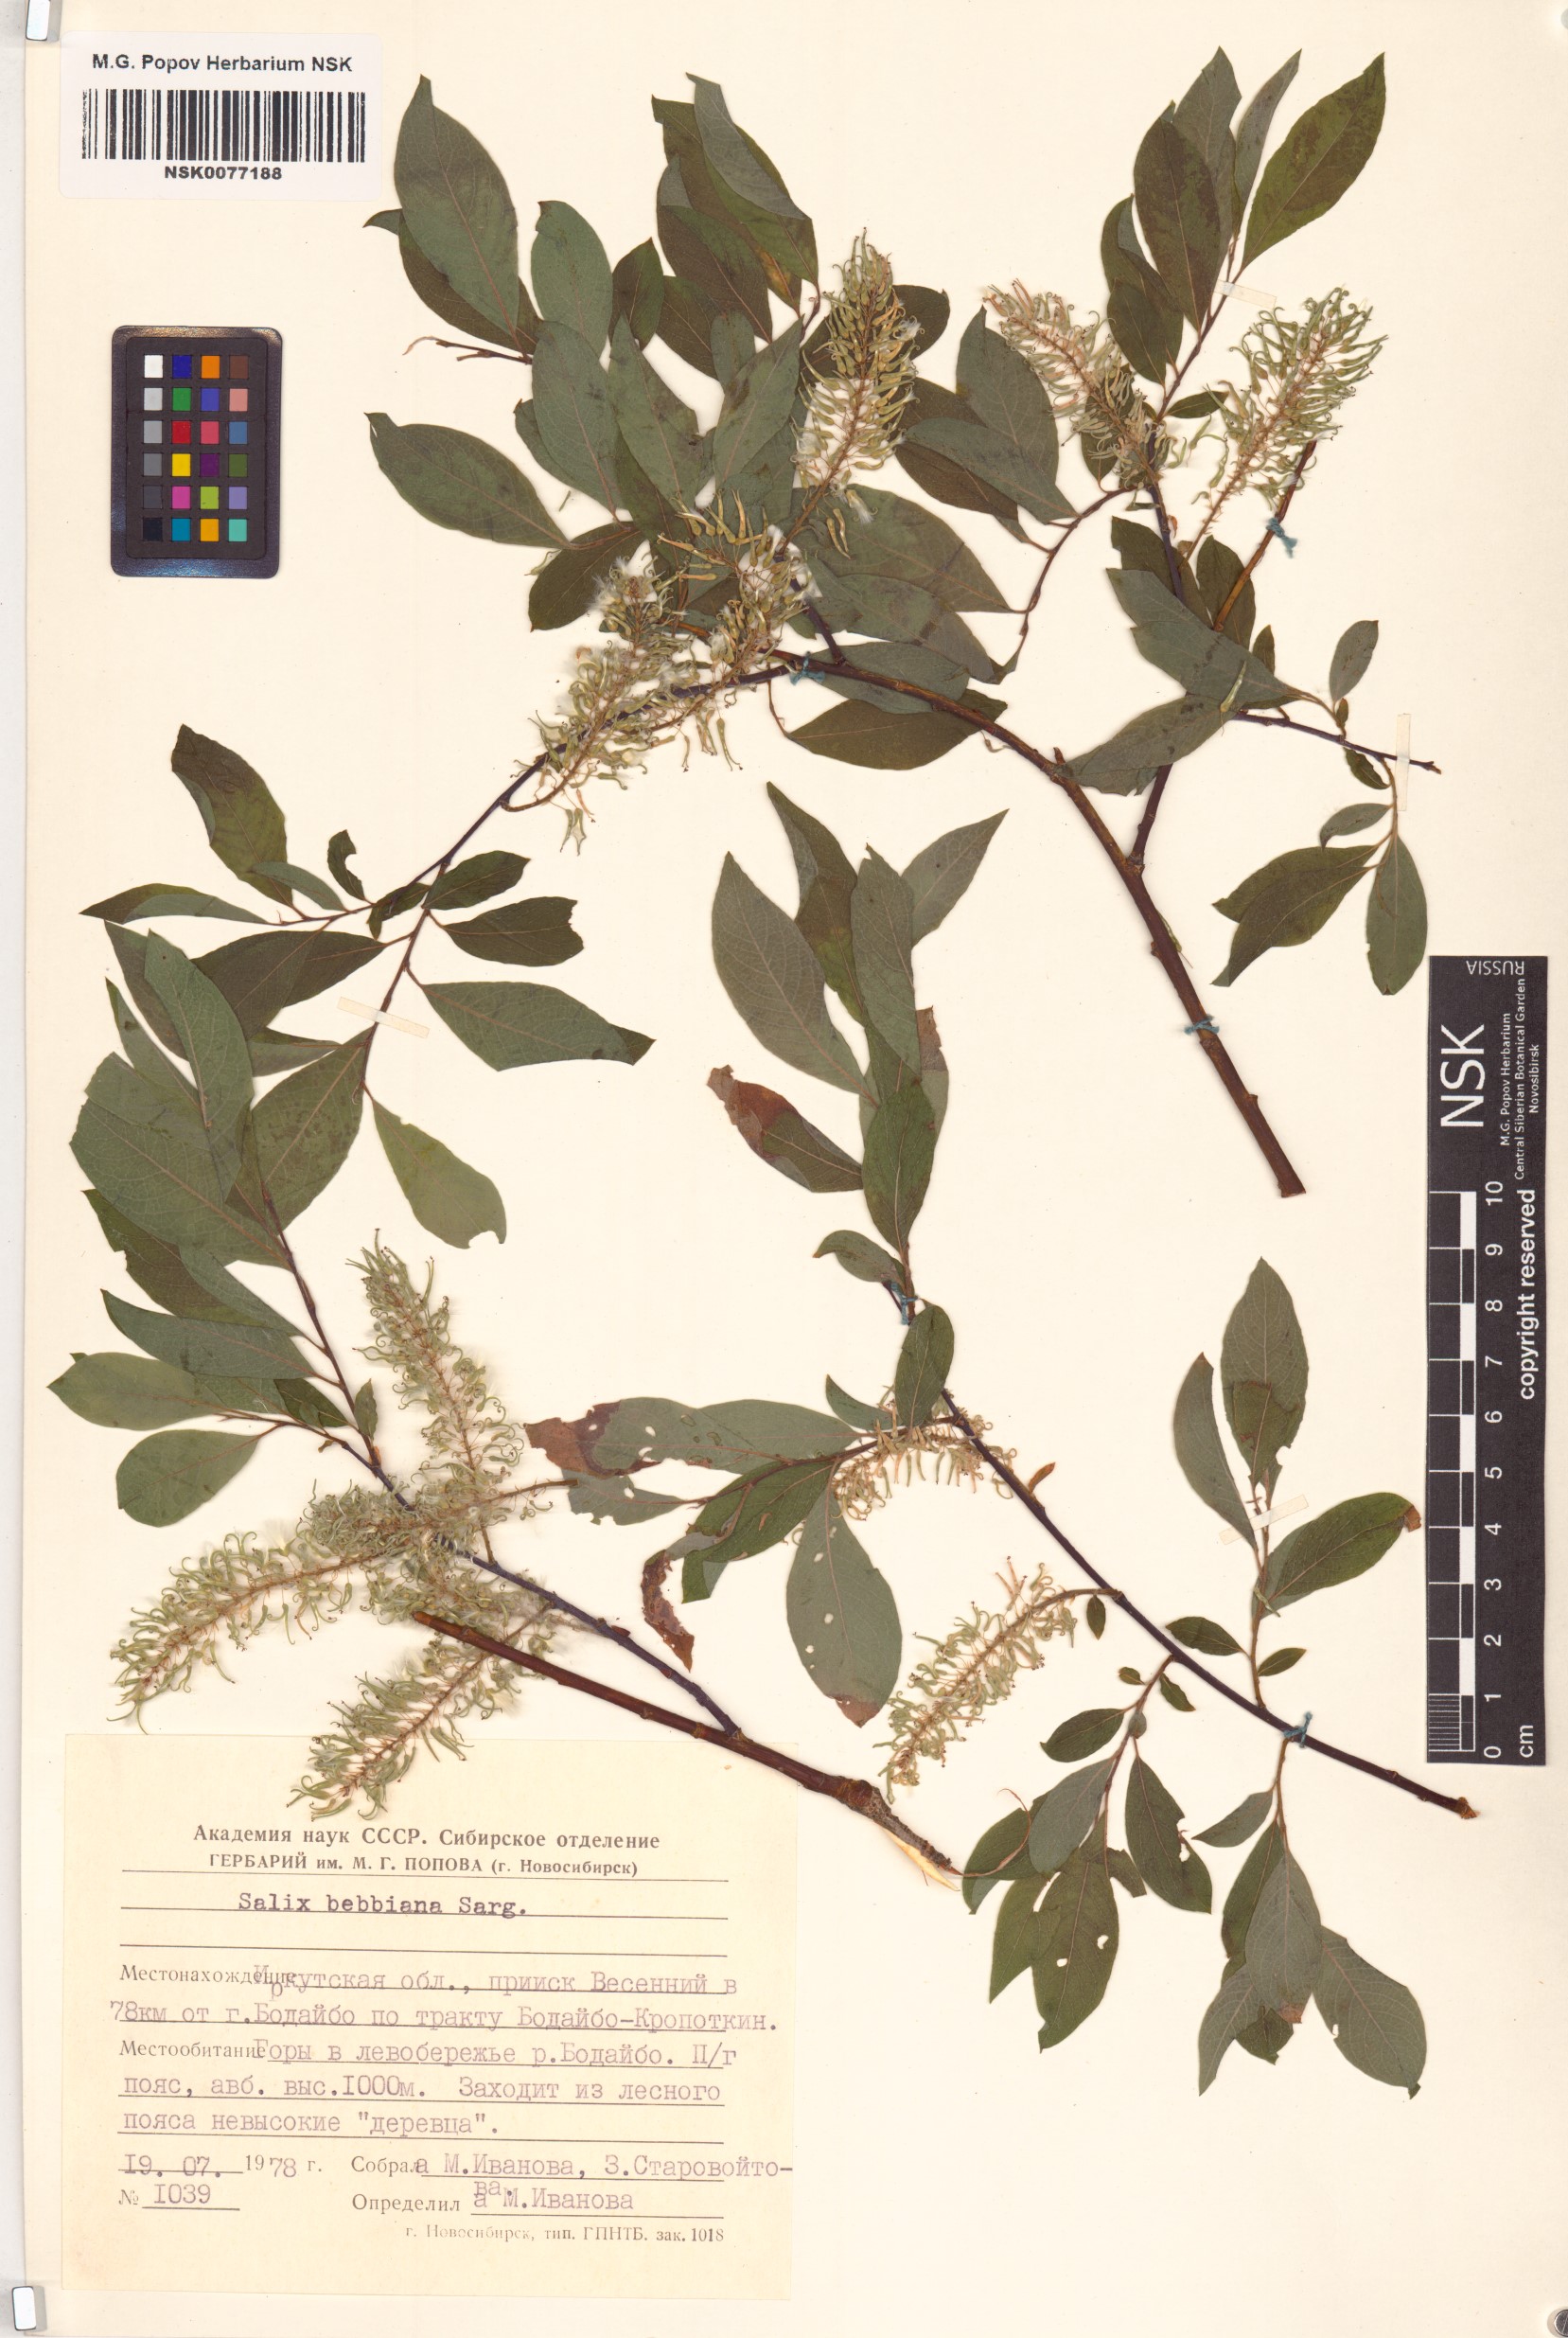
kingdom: Plantae
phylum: Tracheophyta
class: Magnoliopsida
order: Malpighiales
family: Salicaceae
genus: Salix
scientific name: Salix bebbiana
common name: Bebb's willow
